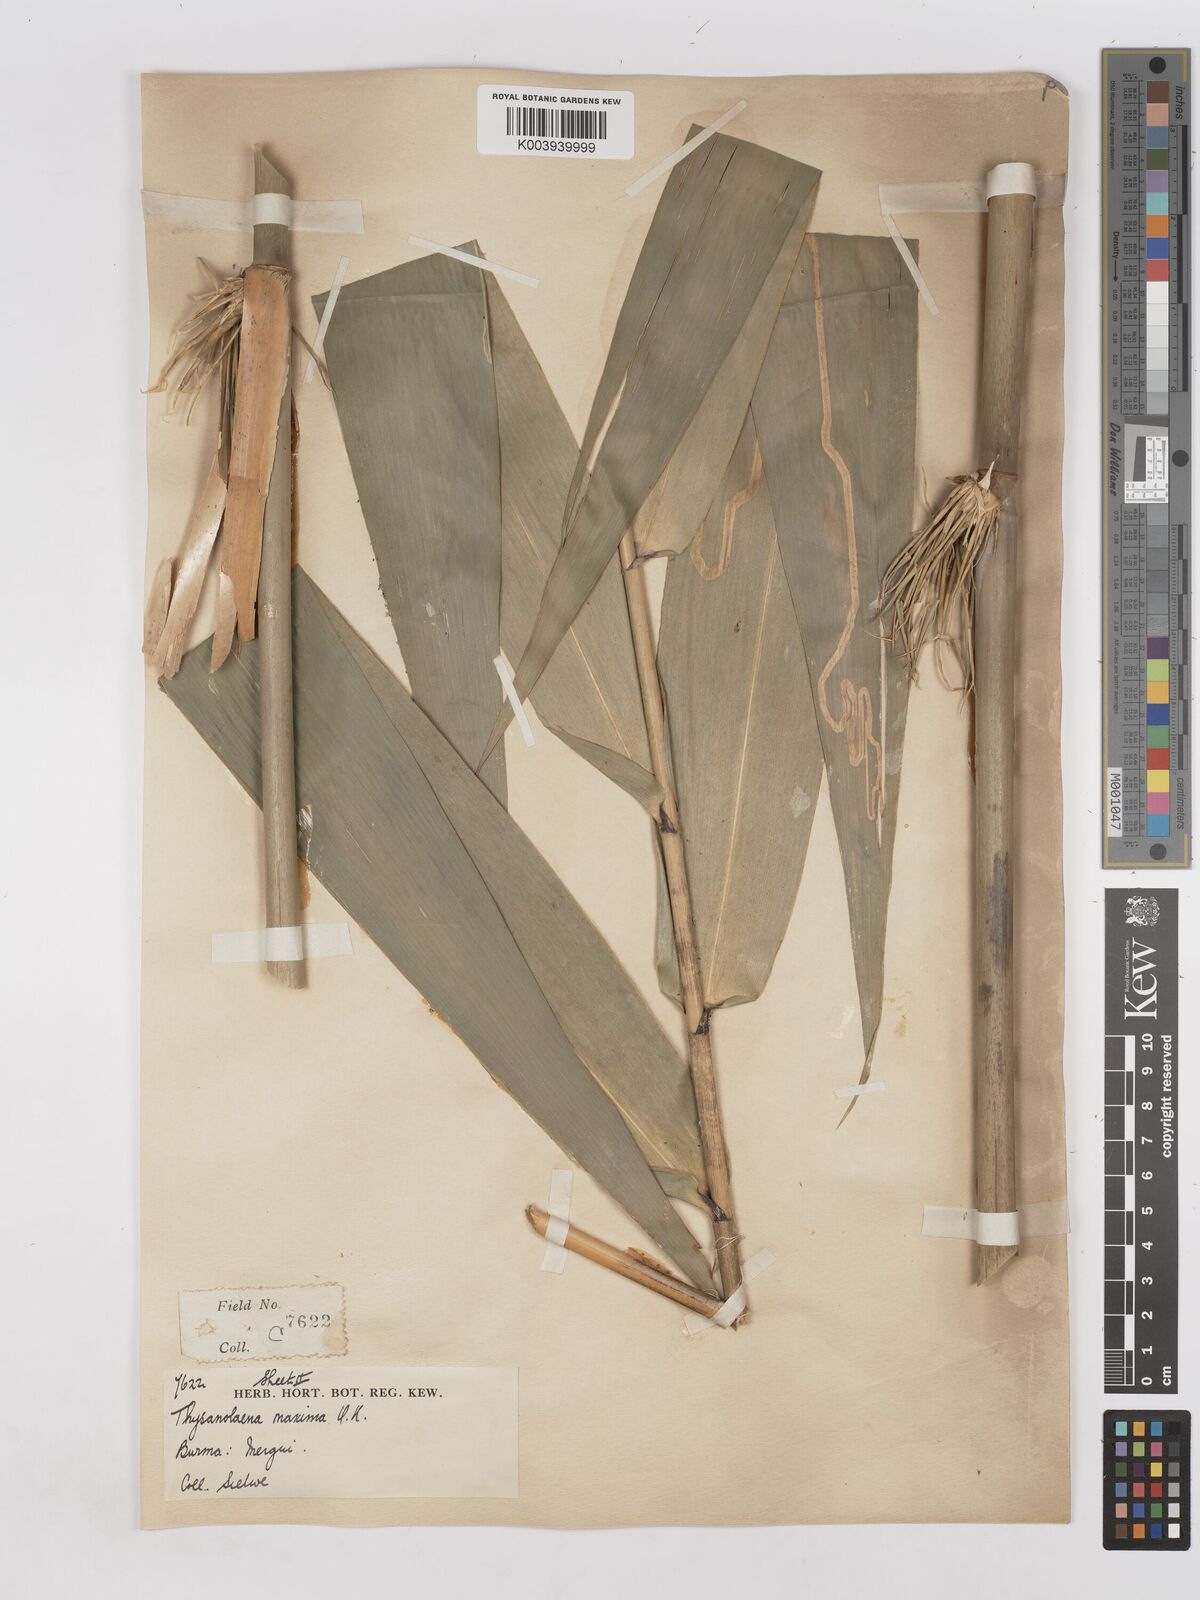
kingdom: Plantae
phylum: Tracheophyta
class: Liliopsida
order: Poales
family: Poaceae
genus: Thysanolaena
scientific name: Thysanolaena latifolia
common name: Tiger grass
